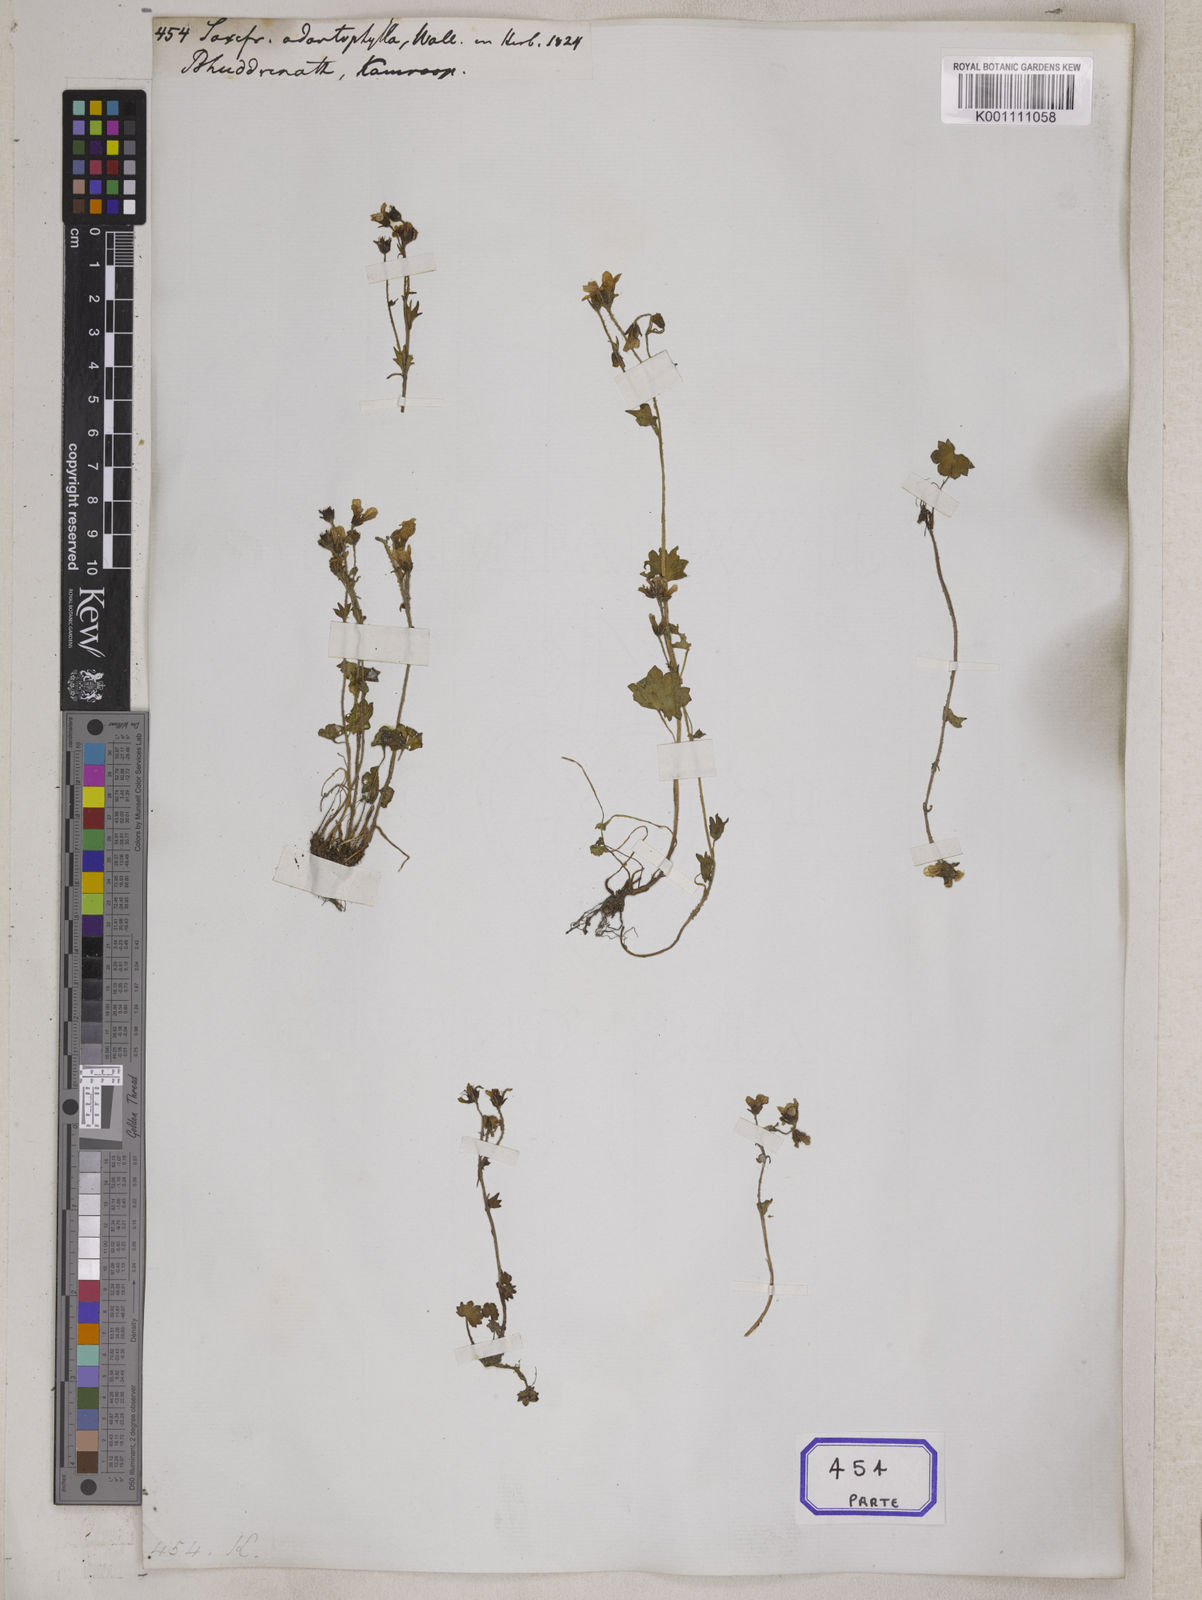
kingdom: Plantae
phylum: Tracheophyta
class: Magnoliopsida
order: Saxifragales
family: Saxifragaceae
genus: Saxifraga
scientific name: Saxifraga
